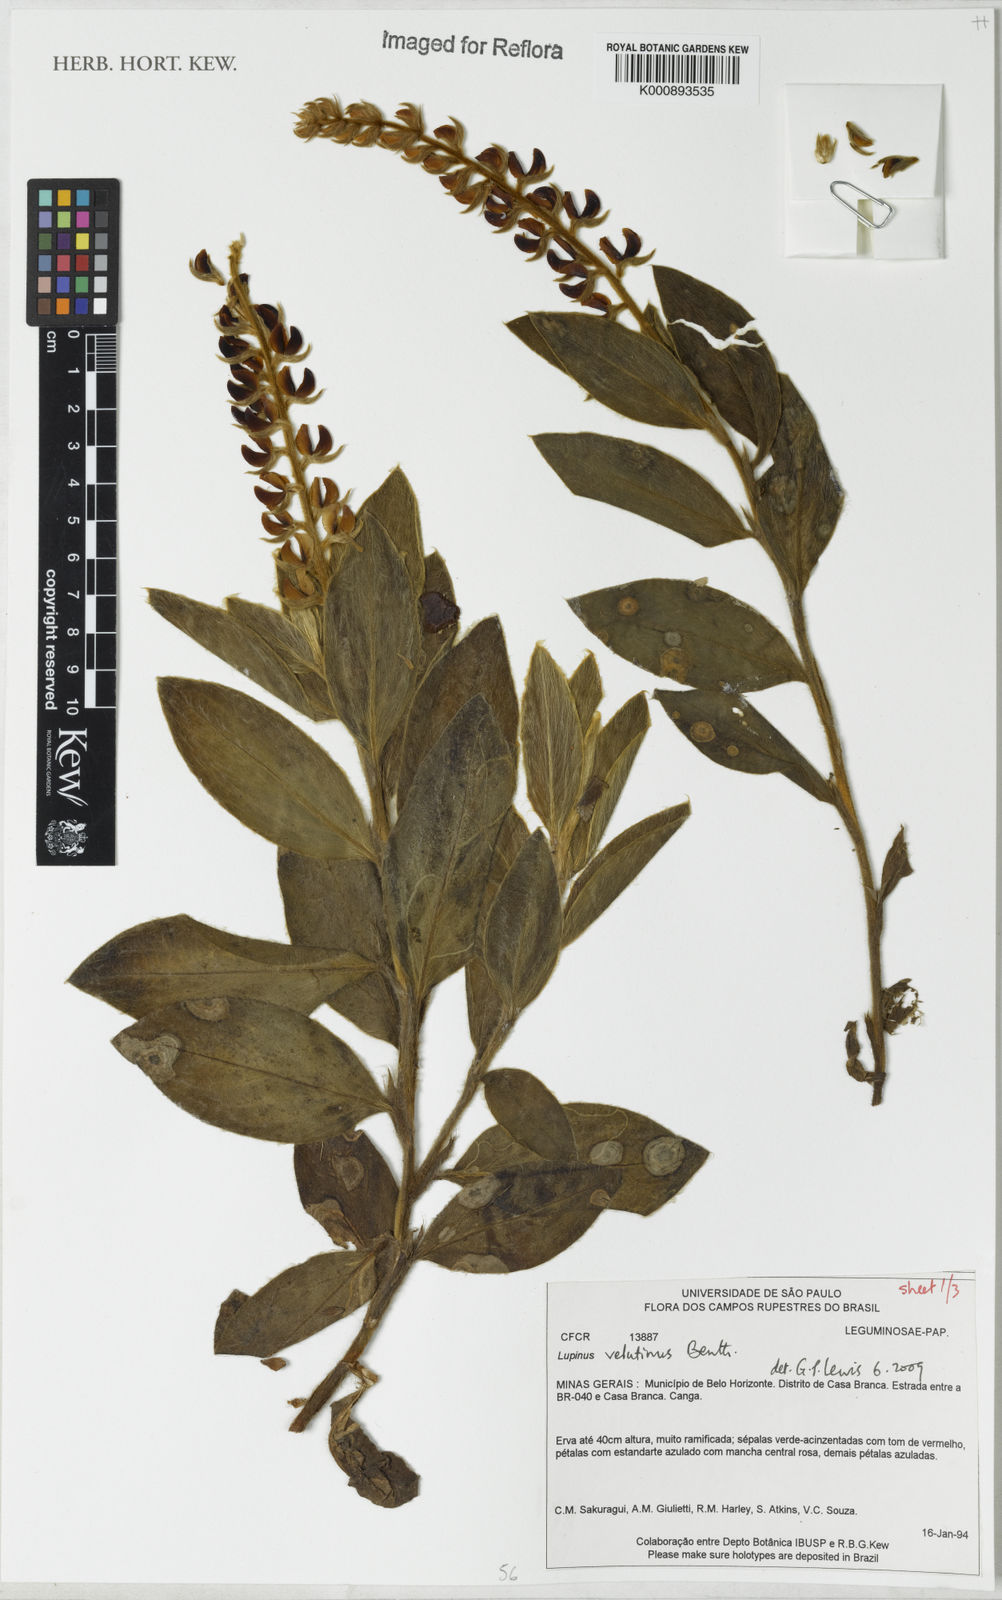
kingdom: Plantae
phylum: Tracheophyta
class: Magnoliopsida
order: Fabales
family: Fabaceae
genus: Lupinus
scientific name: Lupinus velutinus
